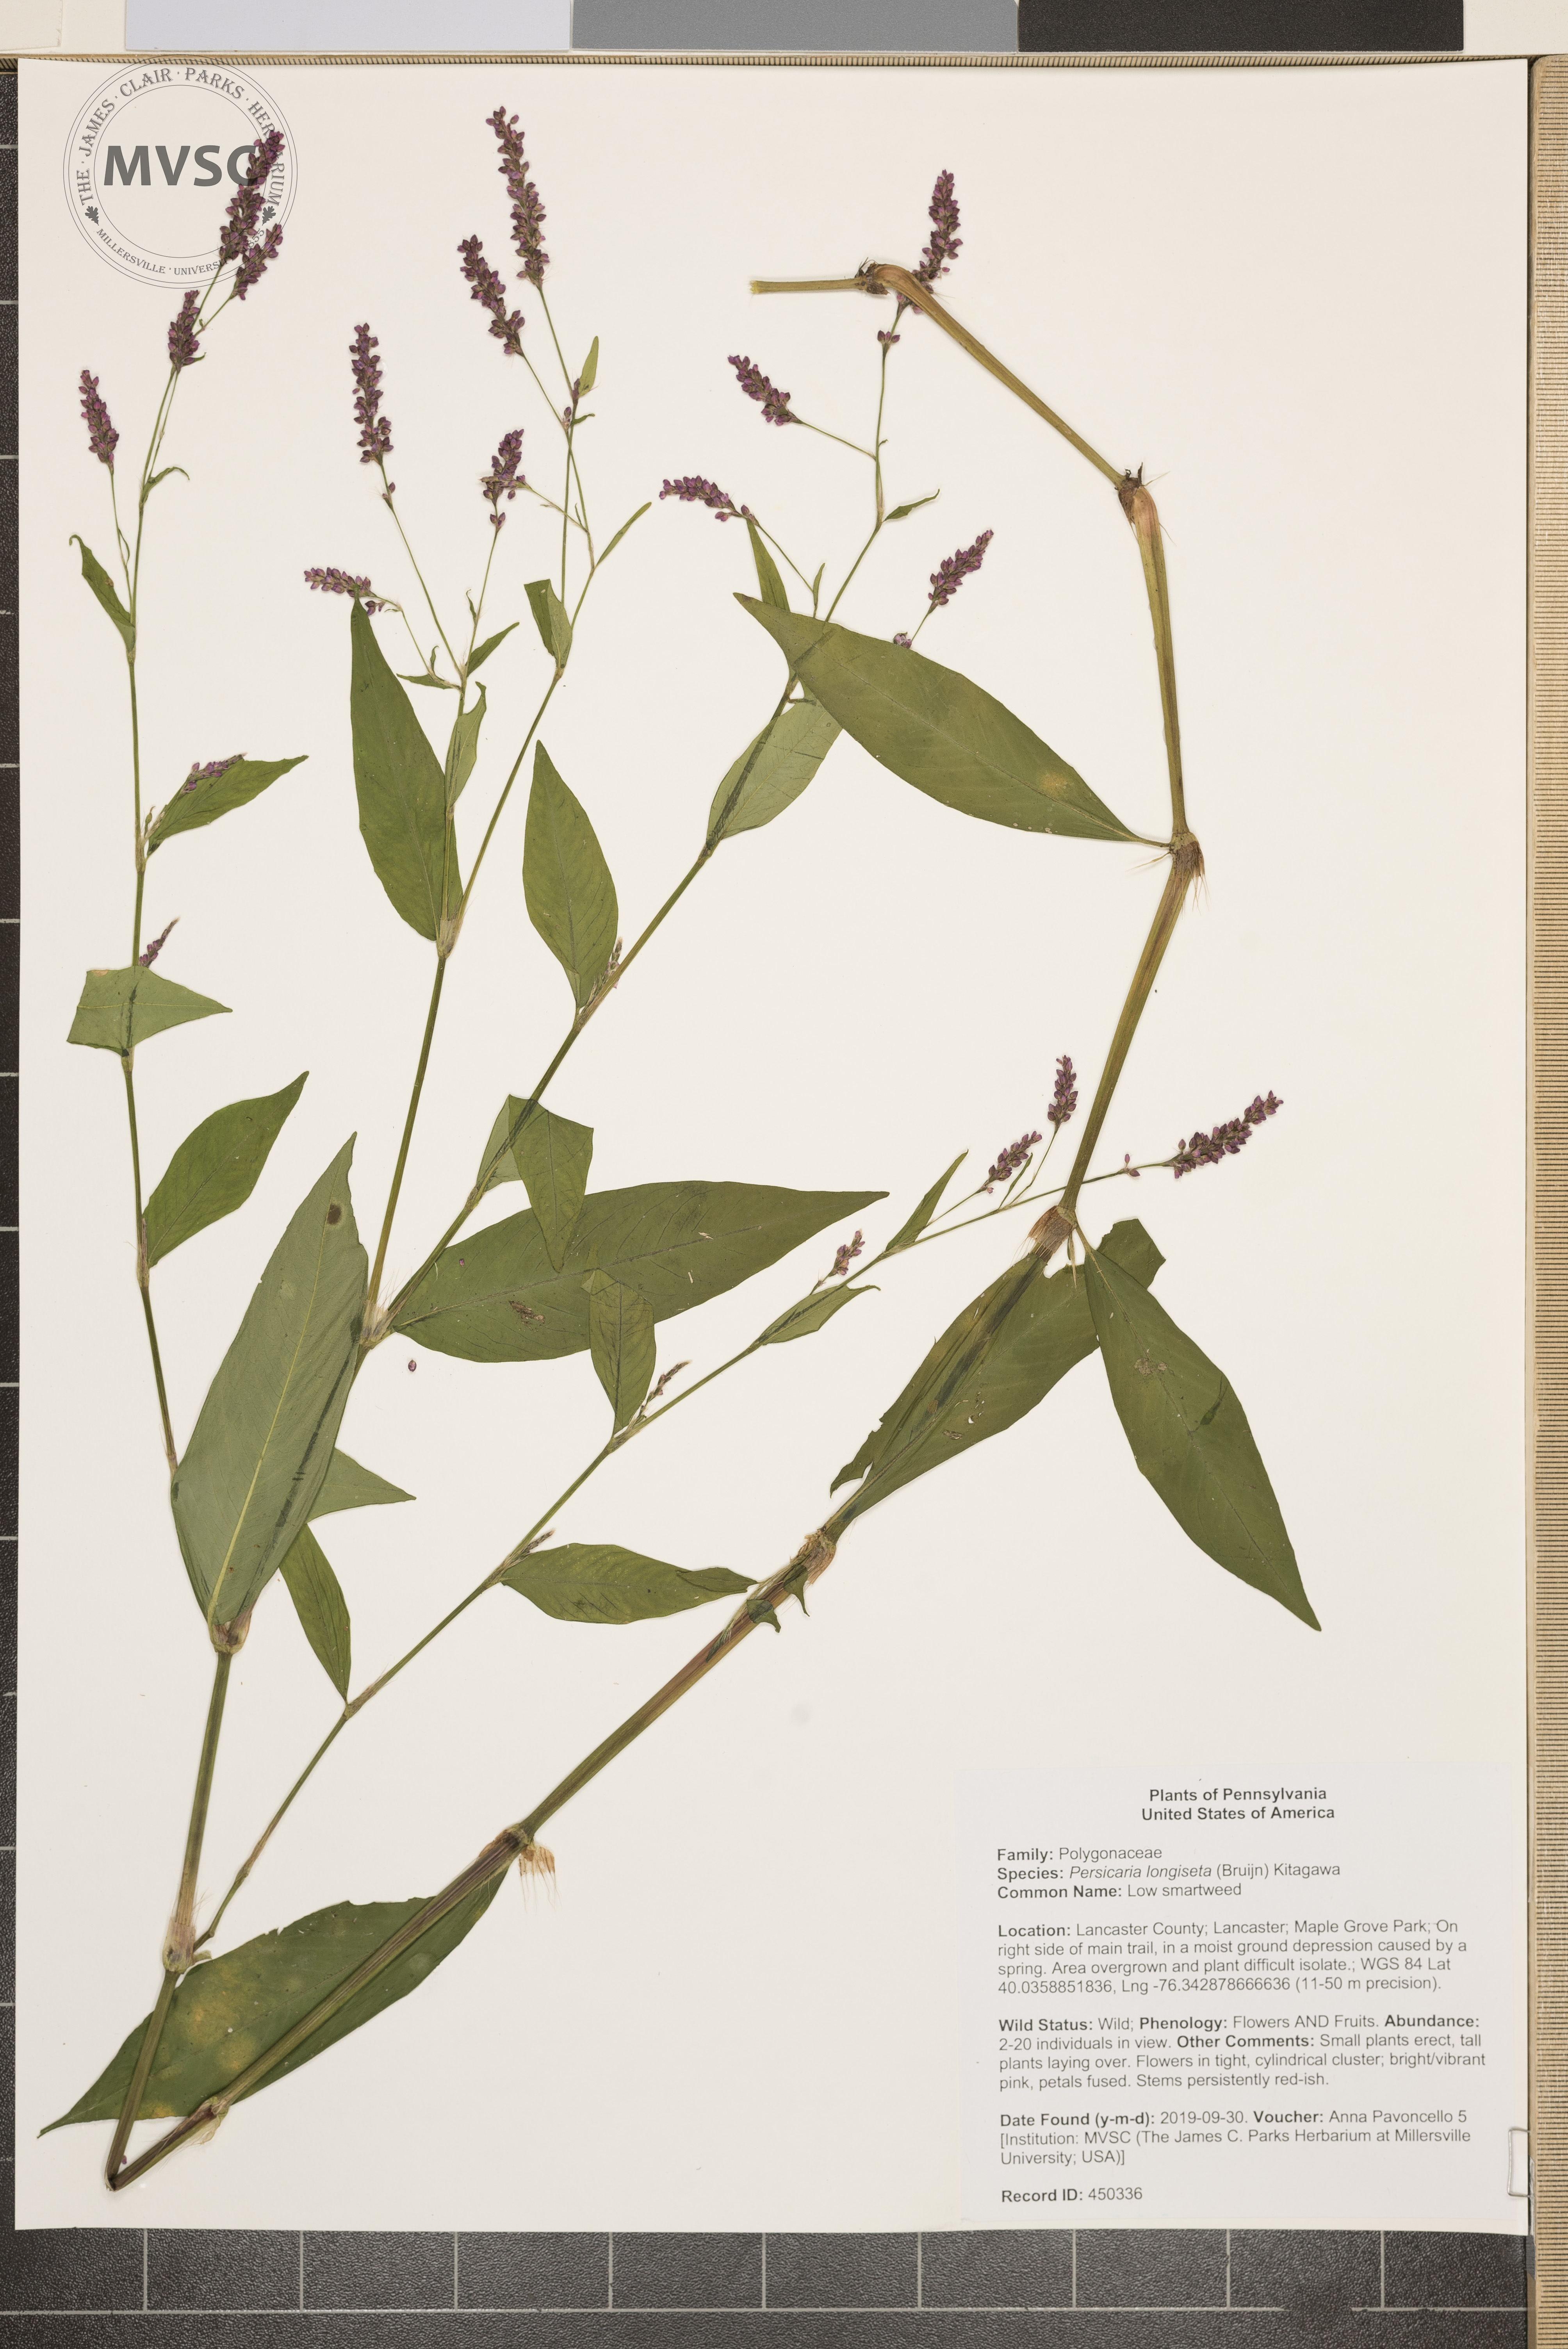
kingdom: Plantae
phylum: Tracheophyta
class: Magnoliopsida
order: Caryophyllales
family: Polygonaceae
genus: Persicaria
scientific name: Persicaria longiseta
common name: Low smartweed
